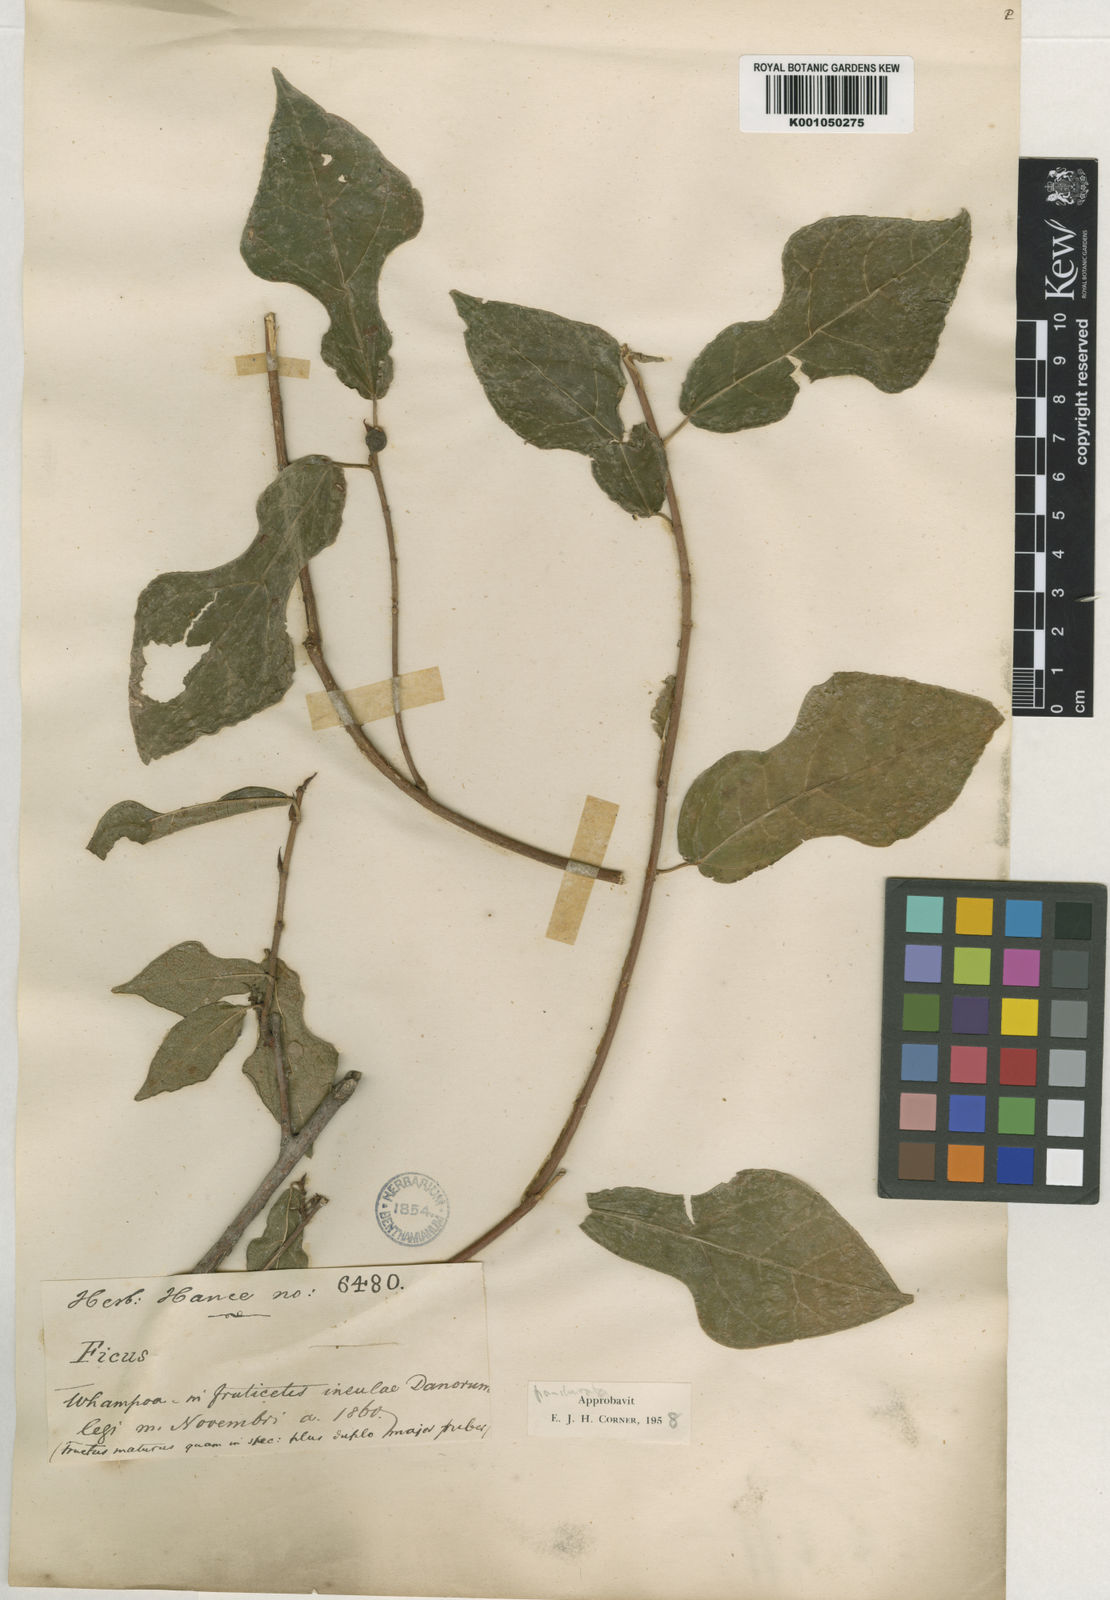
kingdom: Plantae
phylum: Tracheophyta
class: Magnoliopsida
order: Rosales
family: Moraceae
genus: Ficus
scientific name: Ficus pandurata
